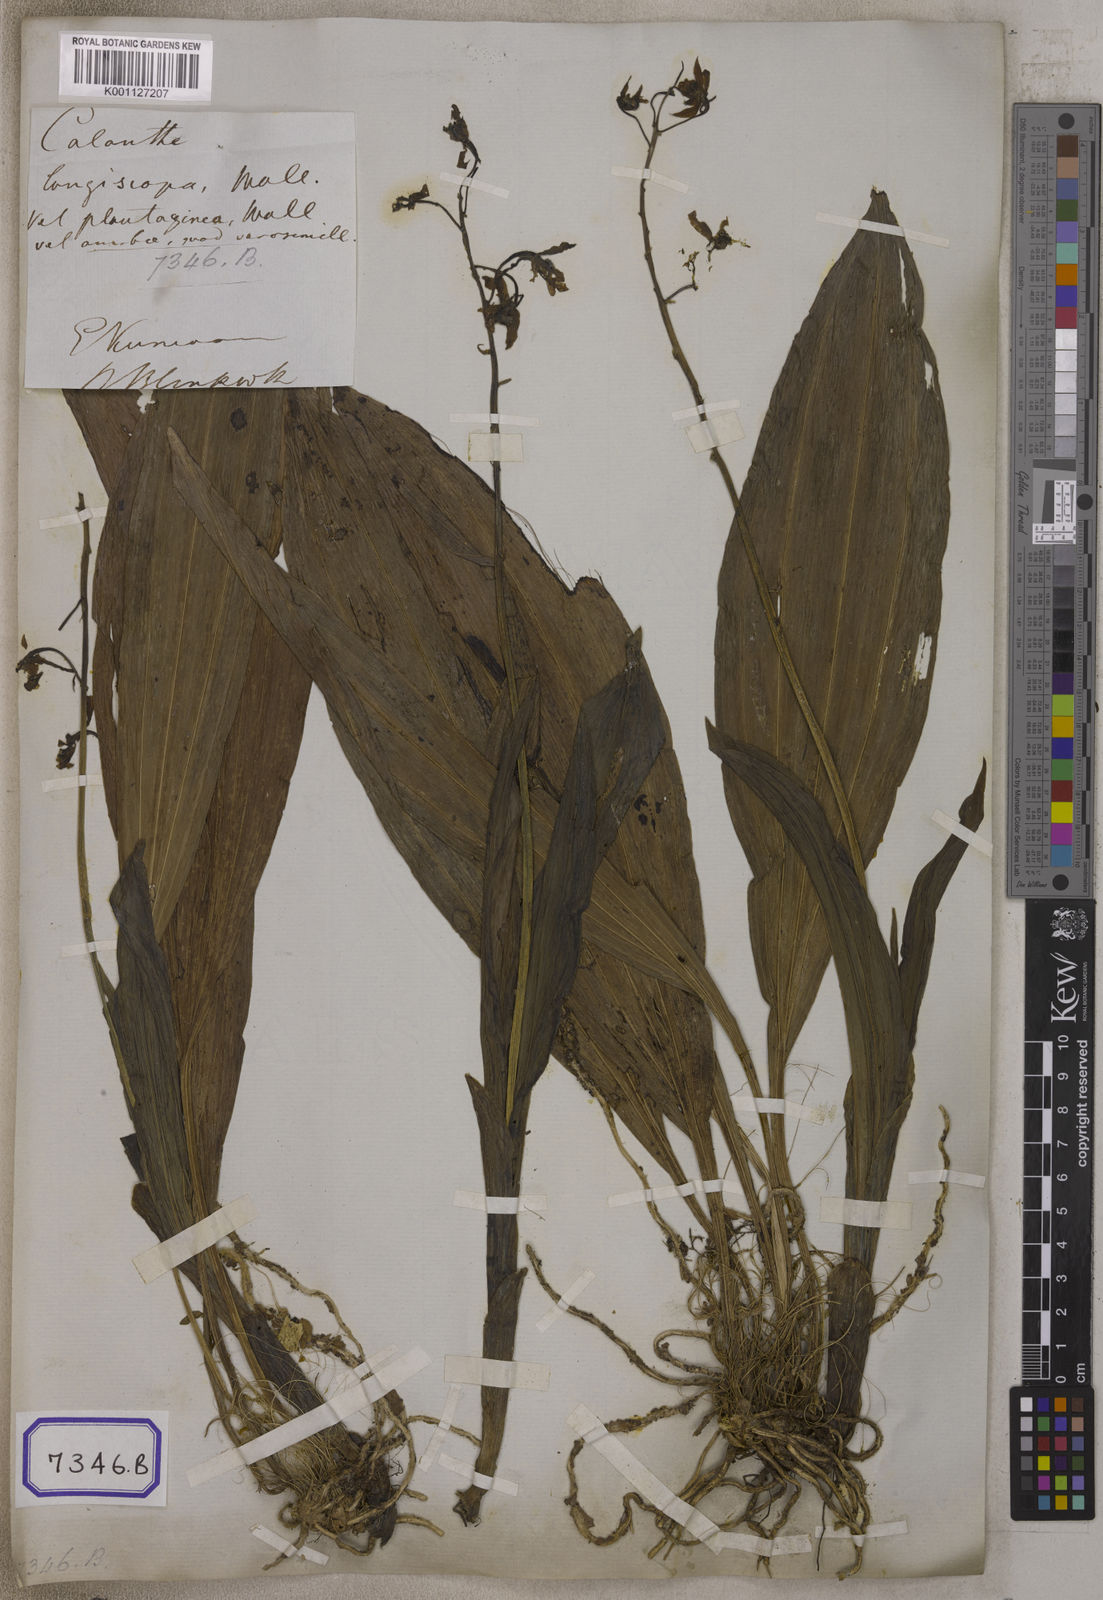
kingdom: Plantae
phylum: Tracheophyta
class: Liliopsida
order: Asparagales
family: Orchidaceae
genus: Calanthe
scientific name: Calanthe plantaginea
